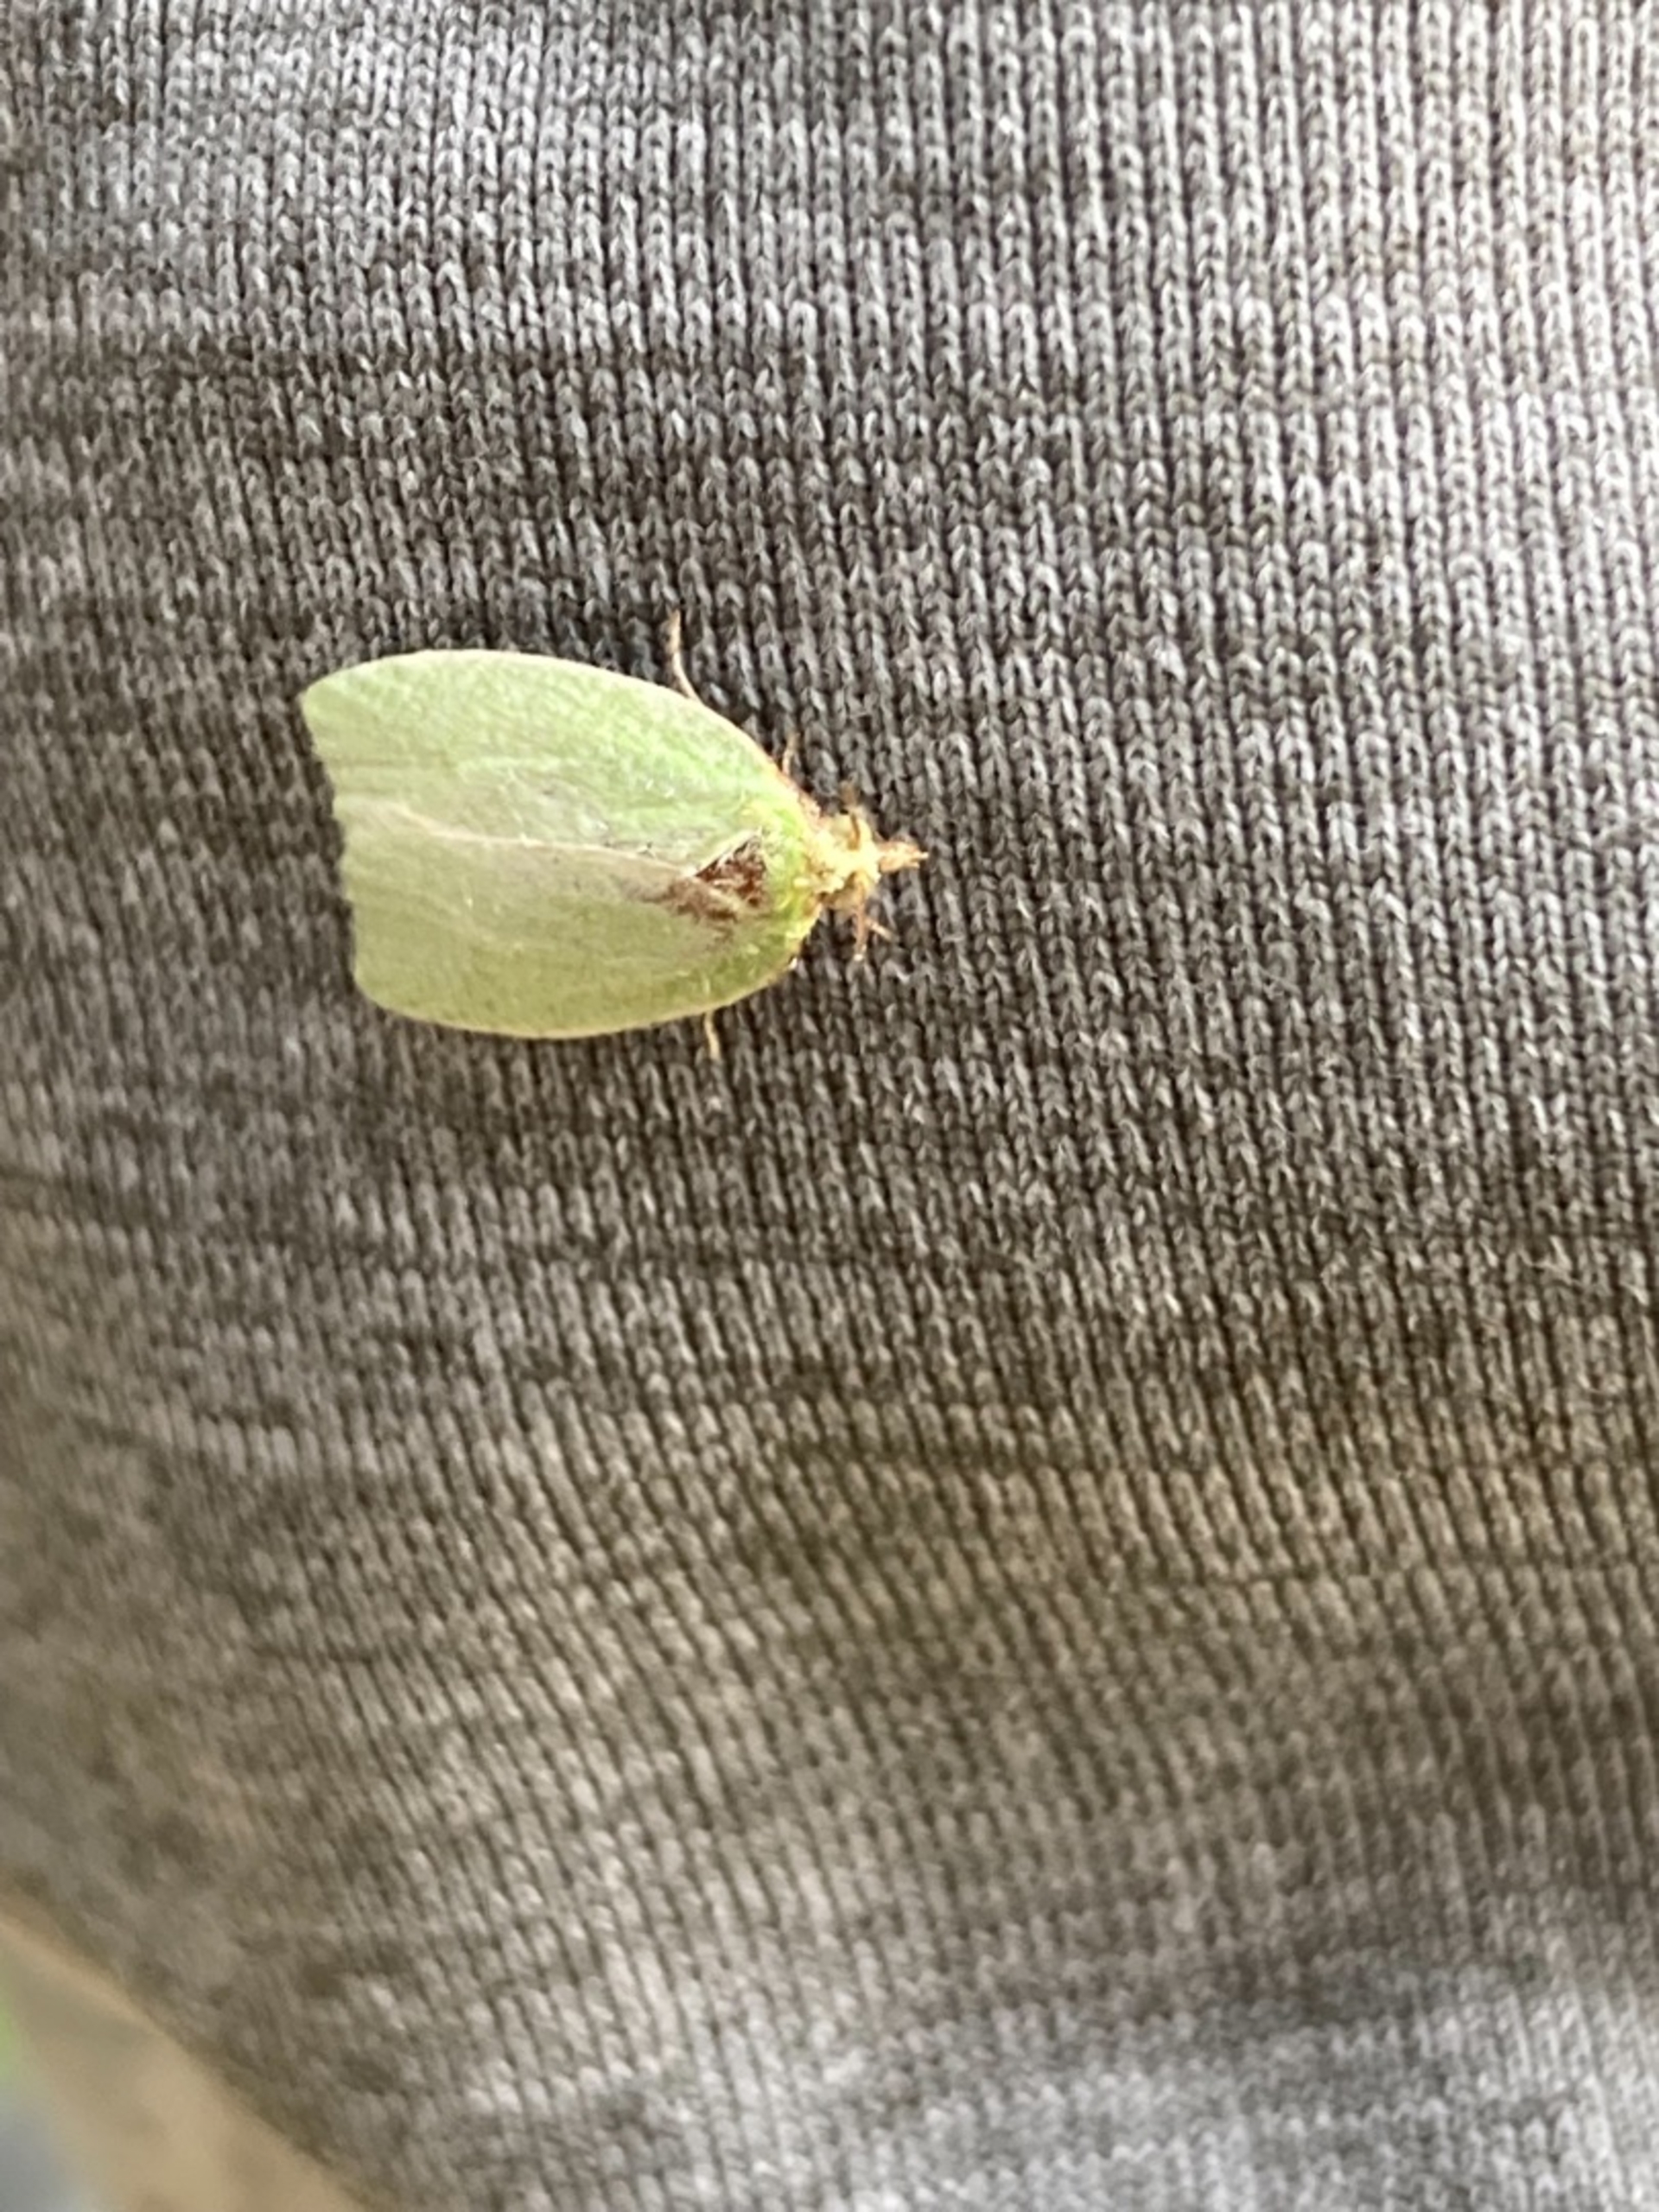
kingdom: Animalia
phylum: Arthropoda
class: Insecta
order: Lepidoptera
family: Tortricidae
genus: Tortrix
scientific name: Tortrix viridana
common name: Egevikler
